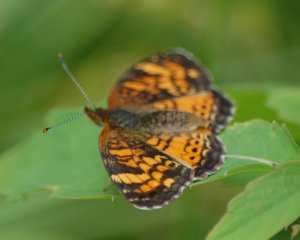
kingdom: Animalia
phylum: Arthropoda
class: Insecta
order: Lepidoptera
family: Nymphalidae
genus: Phyciodes
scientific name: Phyciodes tharos
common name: Northern Crescent
